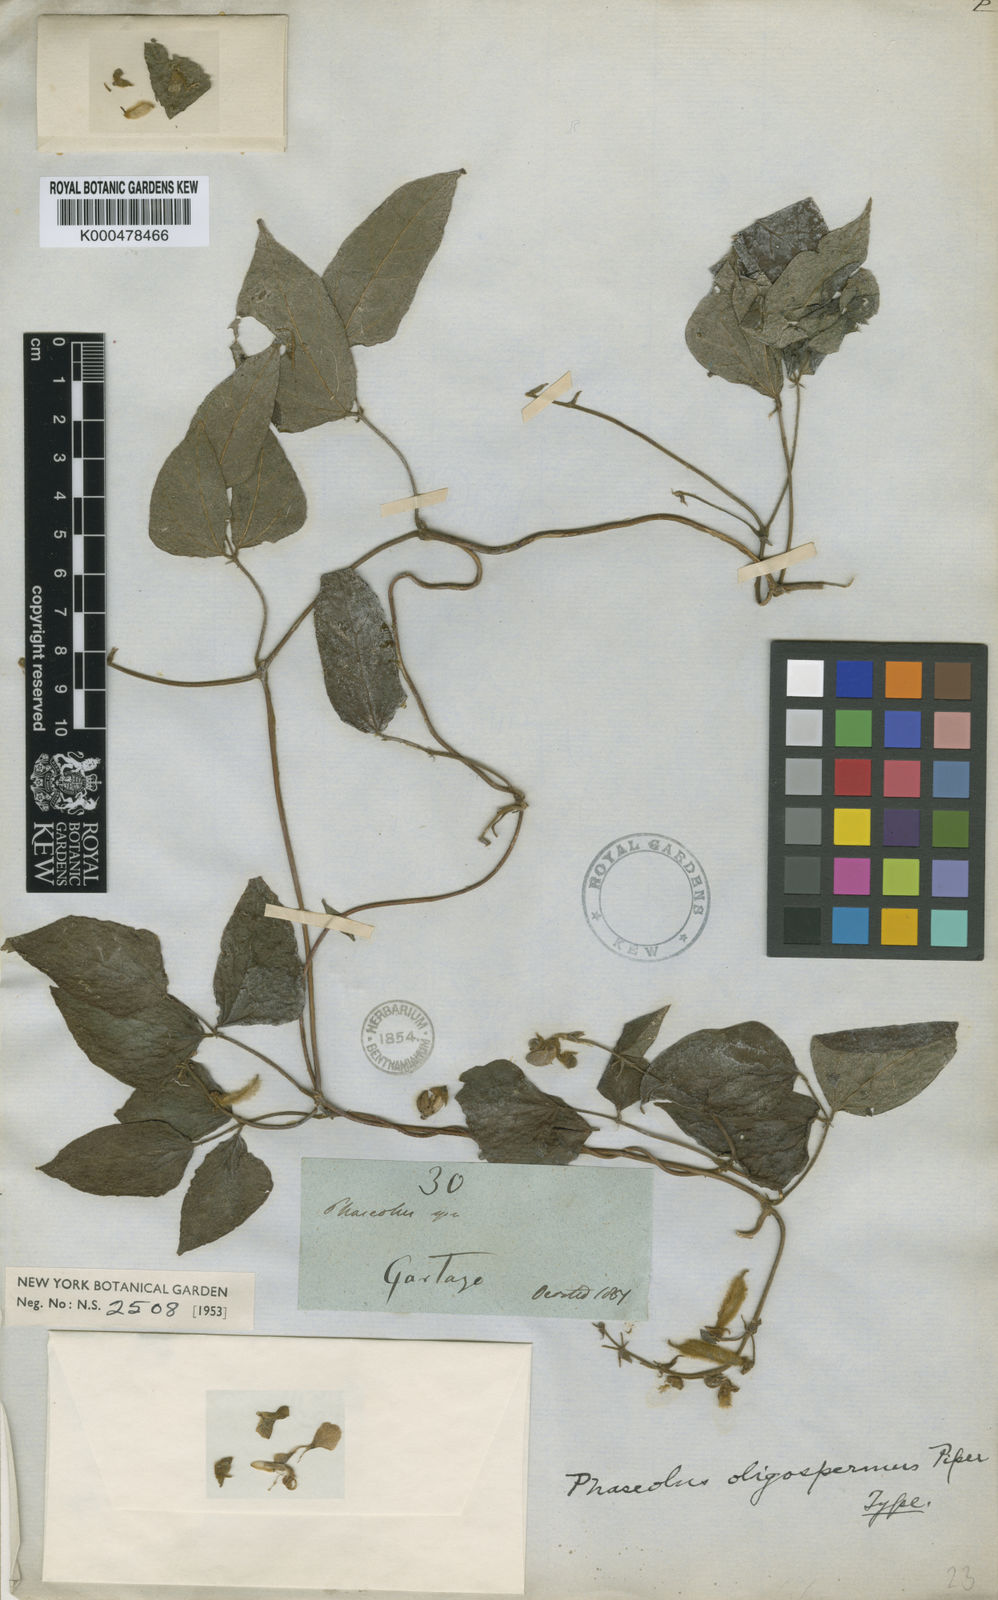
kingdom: Plantae
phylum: Tracheophyta
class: Magnoliopsida
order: Fabales
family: Fabaceae
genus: Phaseolus
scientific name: Phaseolus oligospermus
